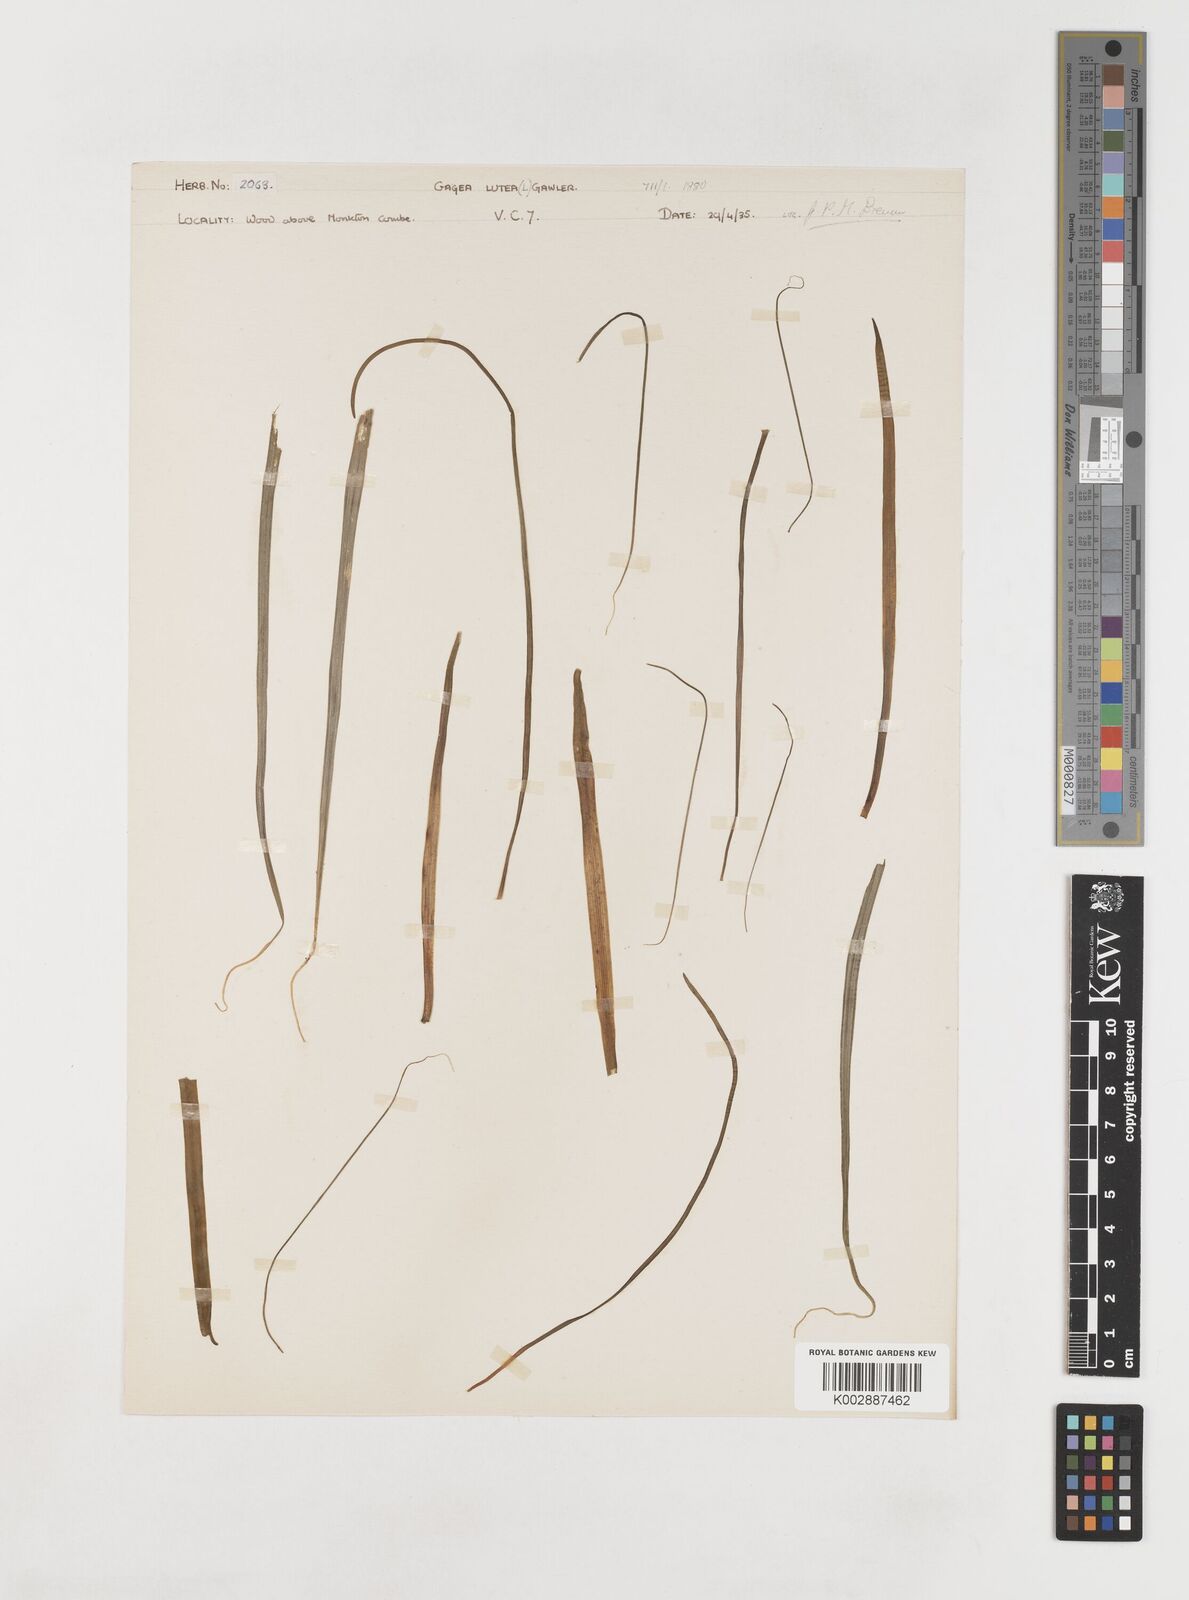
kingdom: Plantae
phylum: Tracheophyta
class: Liliopsida
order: Liliales
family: Liliaceae
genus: Gagea
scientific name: Gagea lutea
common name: Yellow star-of-bethlehem
